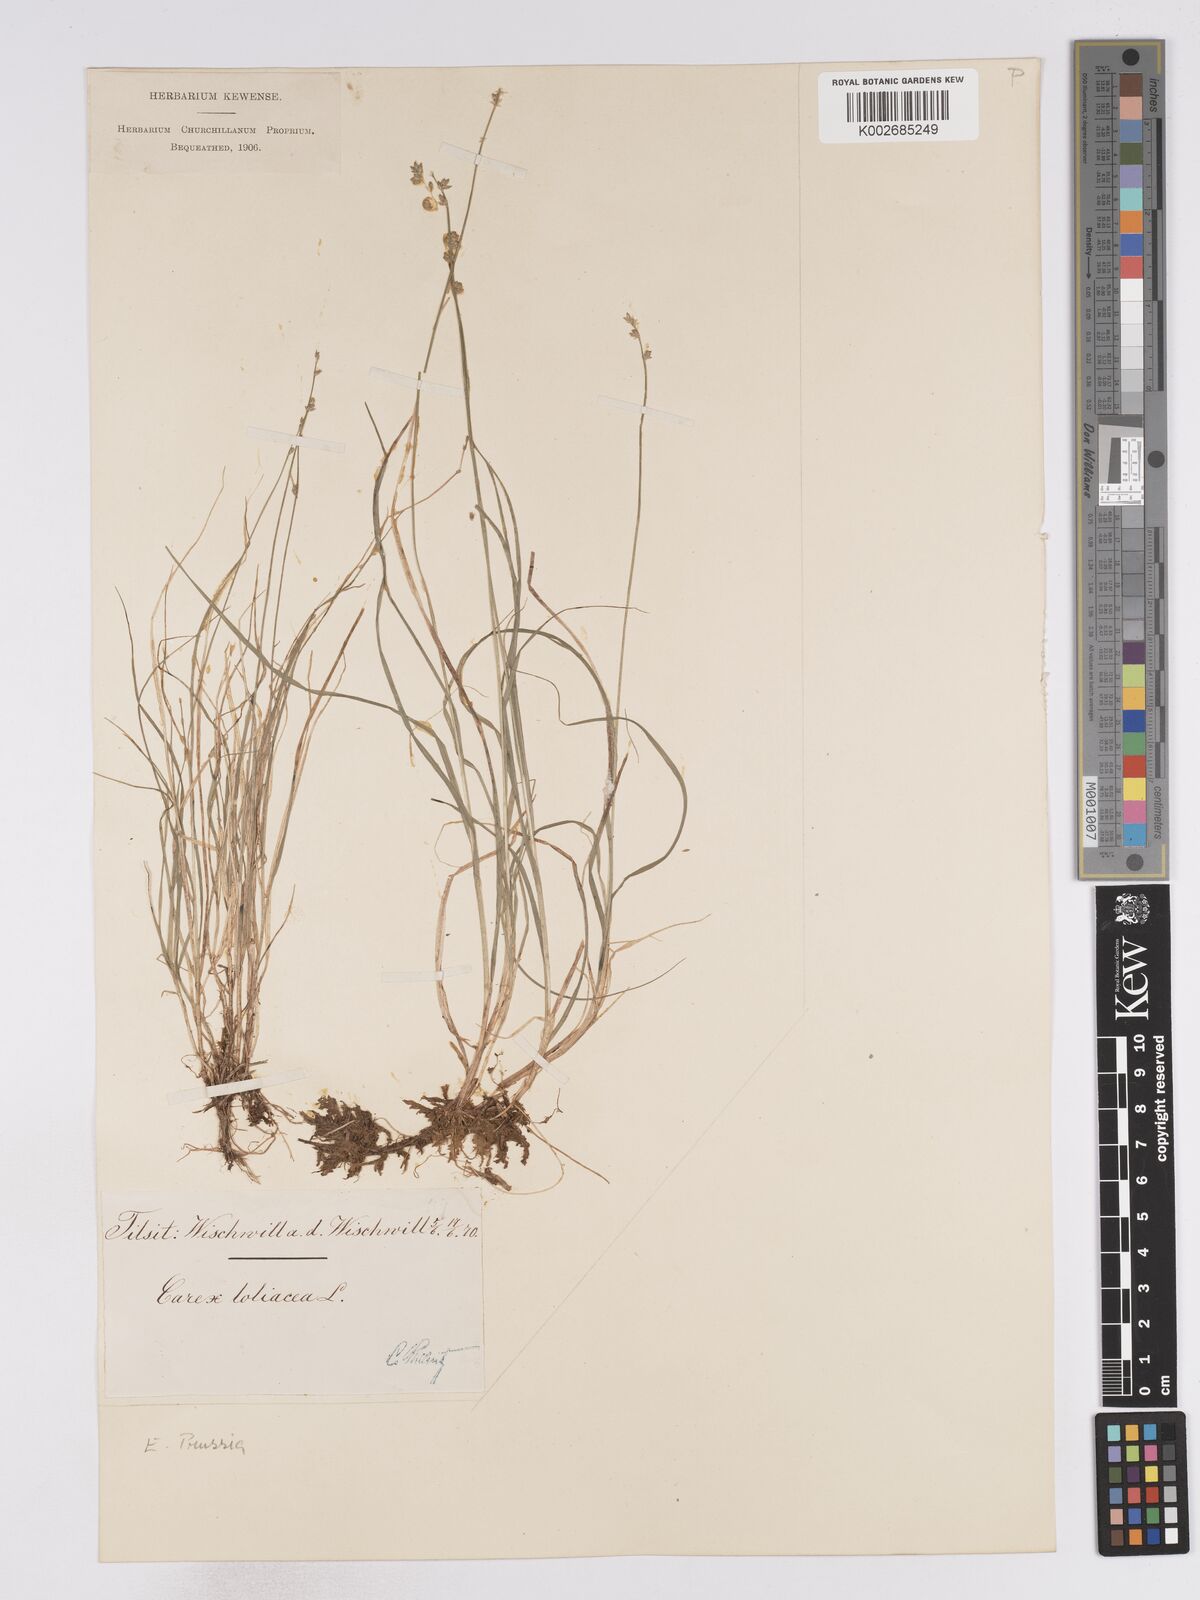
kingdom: Plantae
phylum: Tracheophyta
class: Liliopsida
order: Poales
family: Cyperaceae
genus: Carex
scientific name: Carex loliacea
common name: Ryegrass sedge
